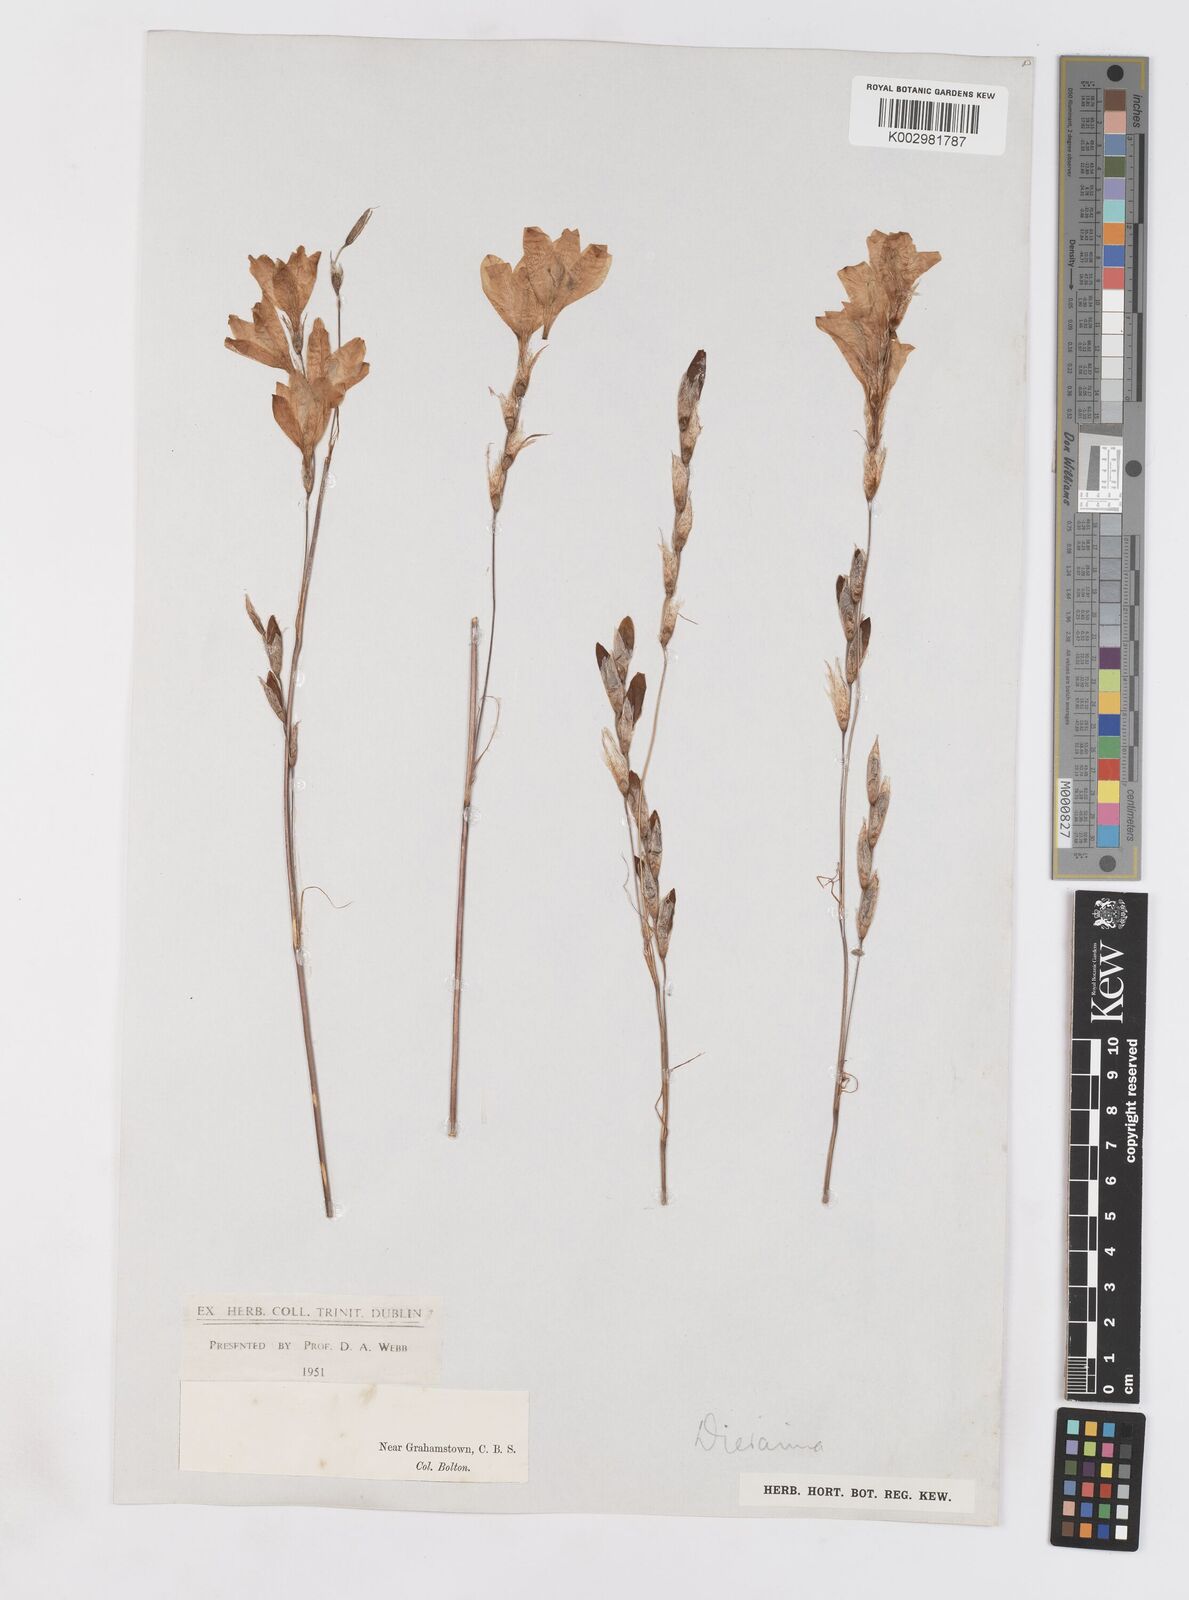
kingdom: Plantae
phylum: Tracheophyta
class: Liliopsida
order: Asparagales
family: Iridaceae
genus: Dierama
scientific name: Dierama pendulum
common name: Grassy-bell
